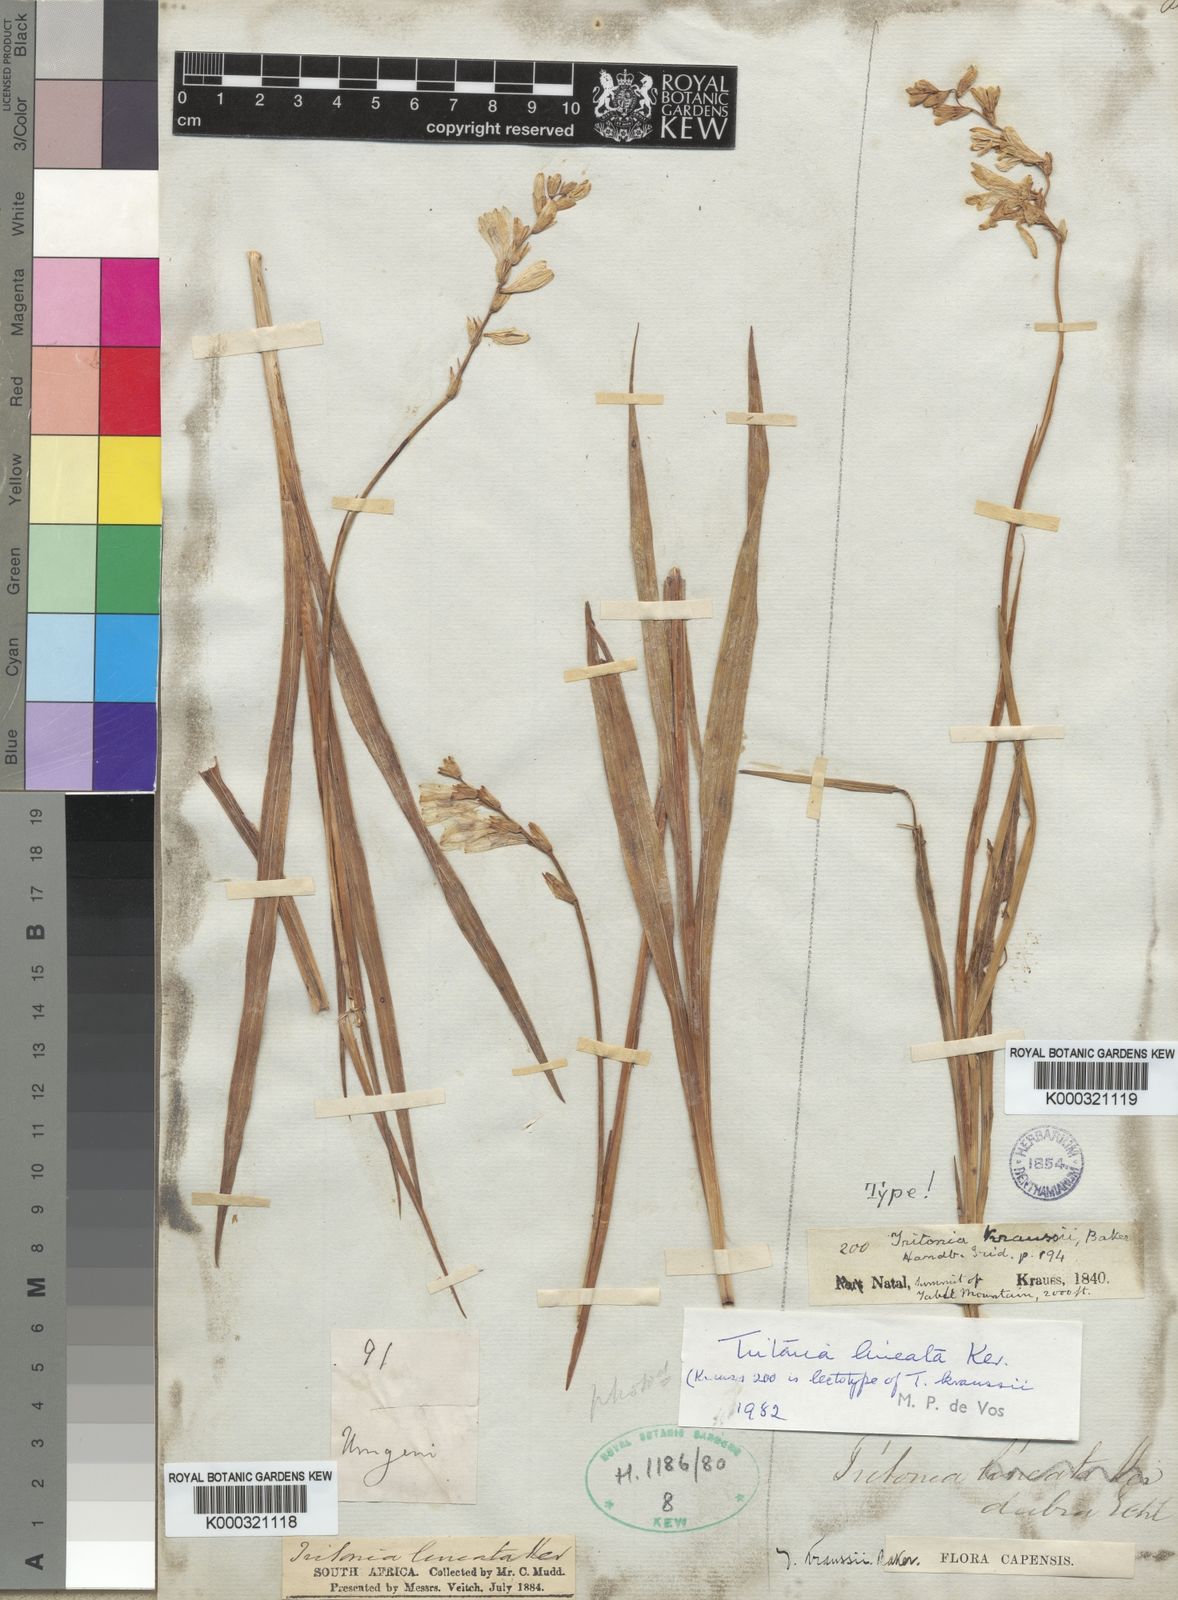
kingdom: Plantae
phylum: Tracheophyta
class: Liliopsida
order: Asparagales
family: Iridaceae
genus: Tritonia
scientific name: Tritonia gladiolaris
